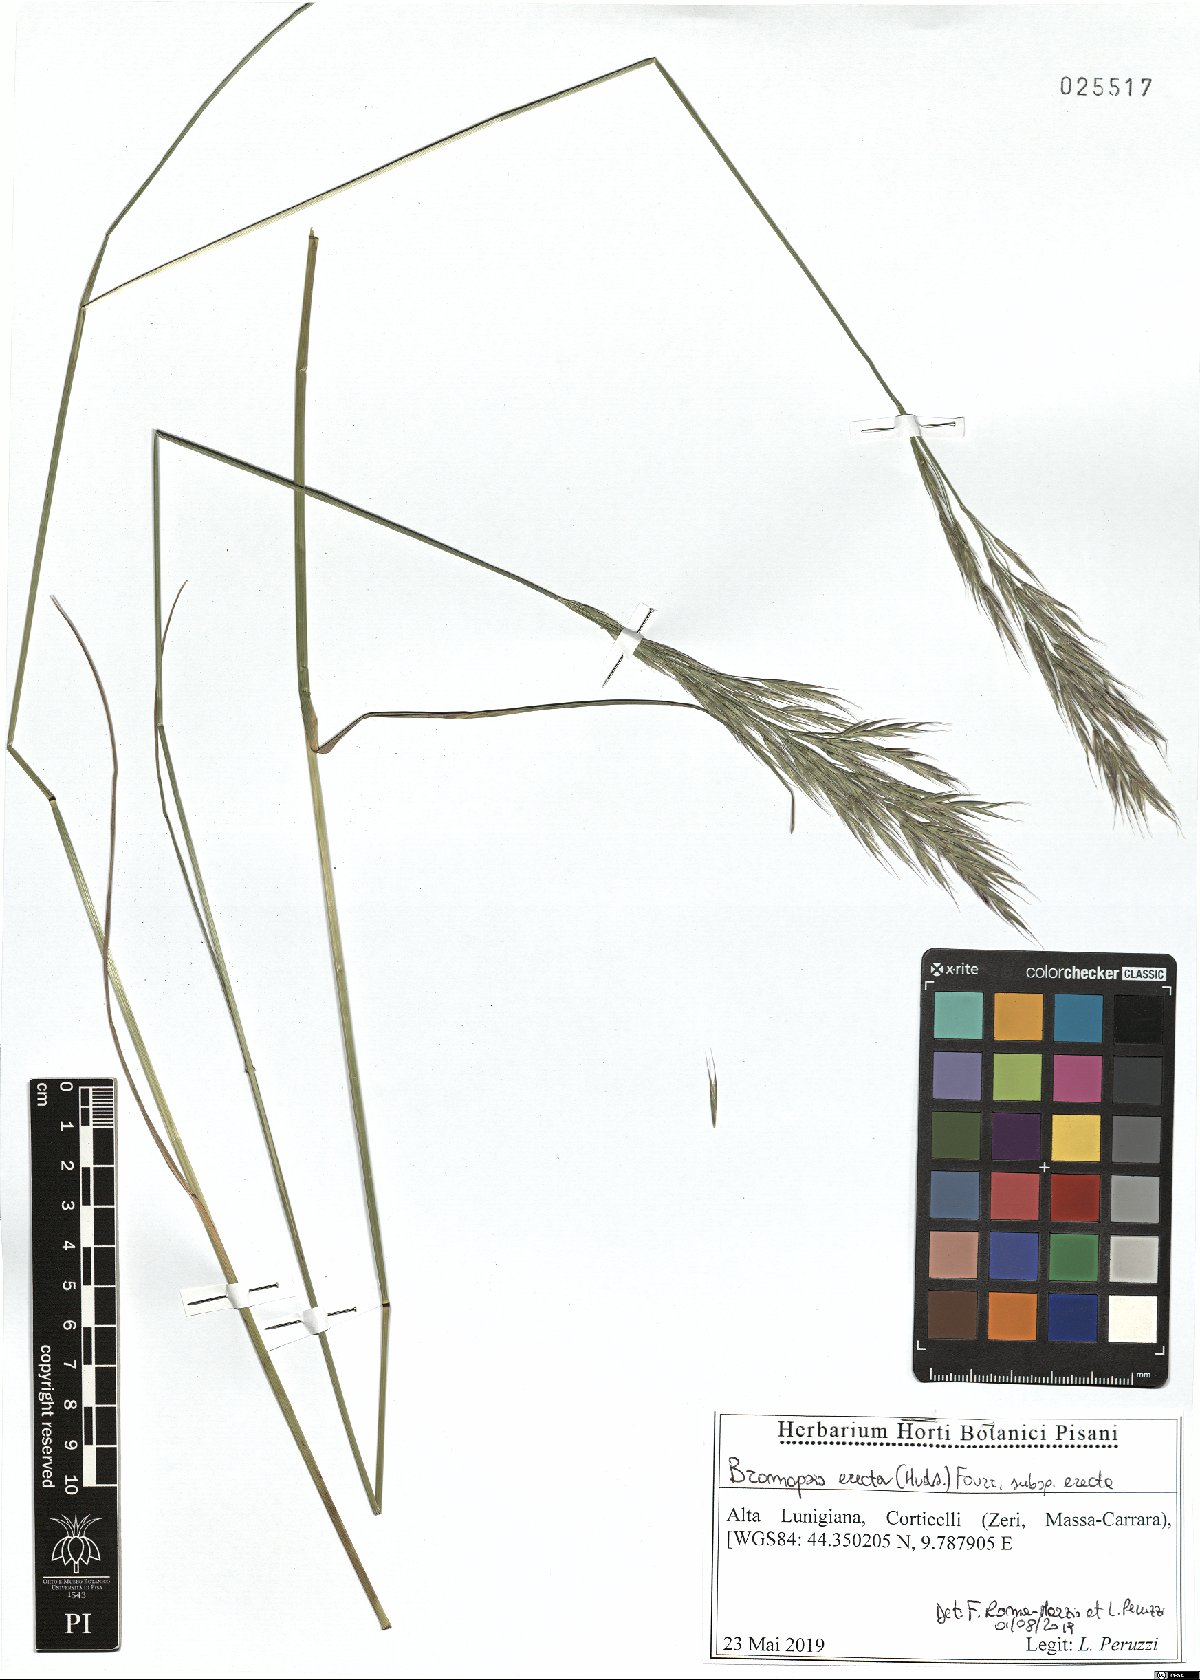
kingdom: Plantae
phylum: Tracheophyta
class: Liliopsida
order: Poales
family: Poaceae
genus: Bromus
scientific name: Bromus erectus
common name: Erect brome
